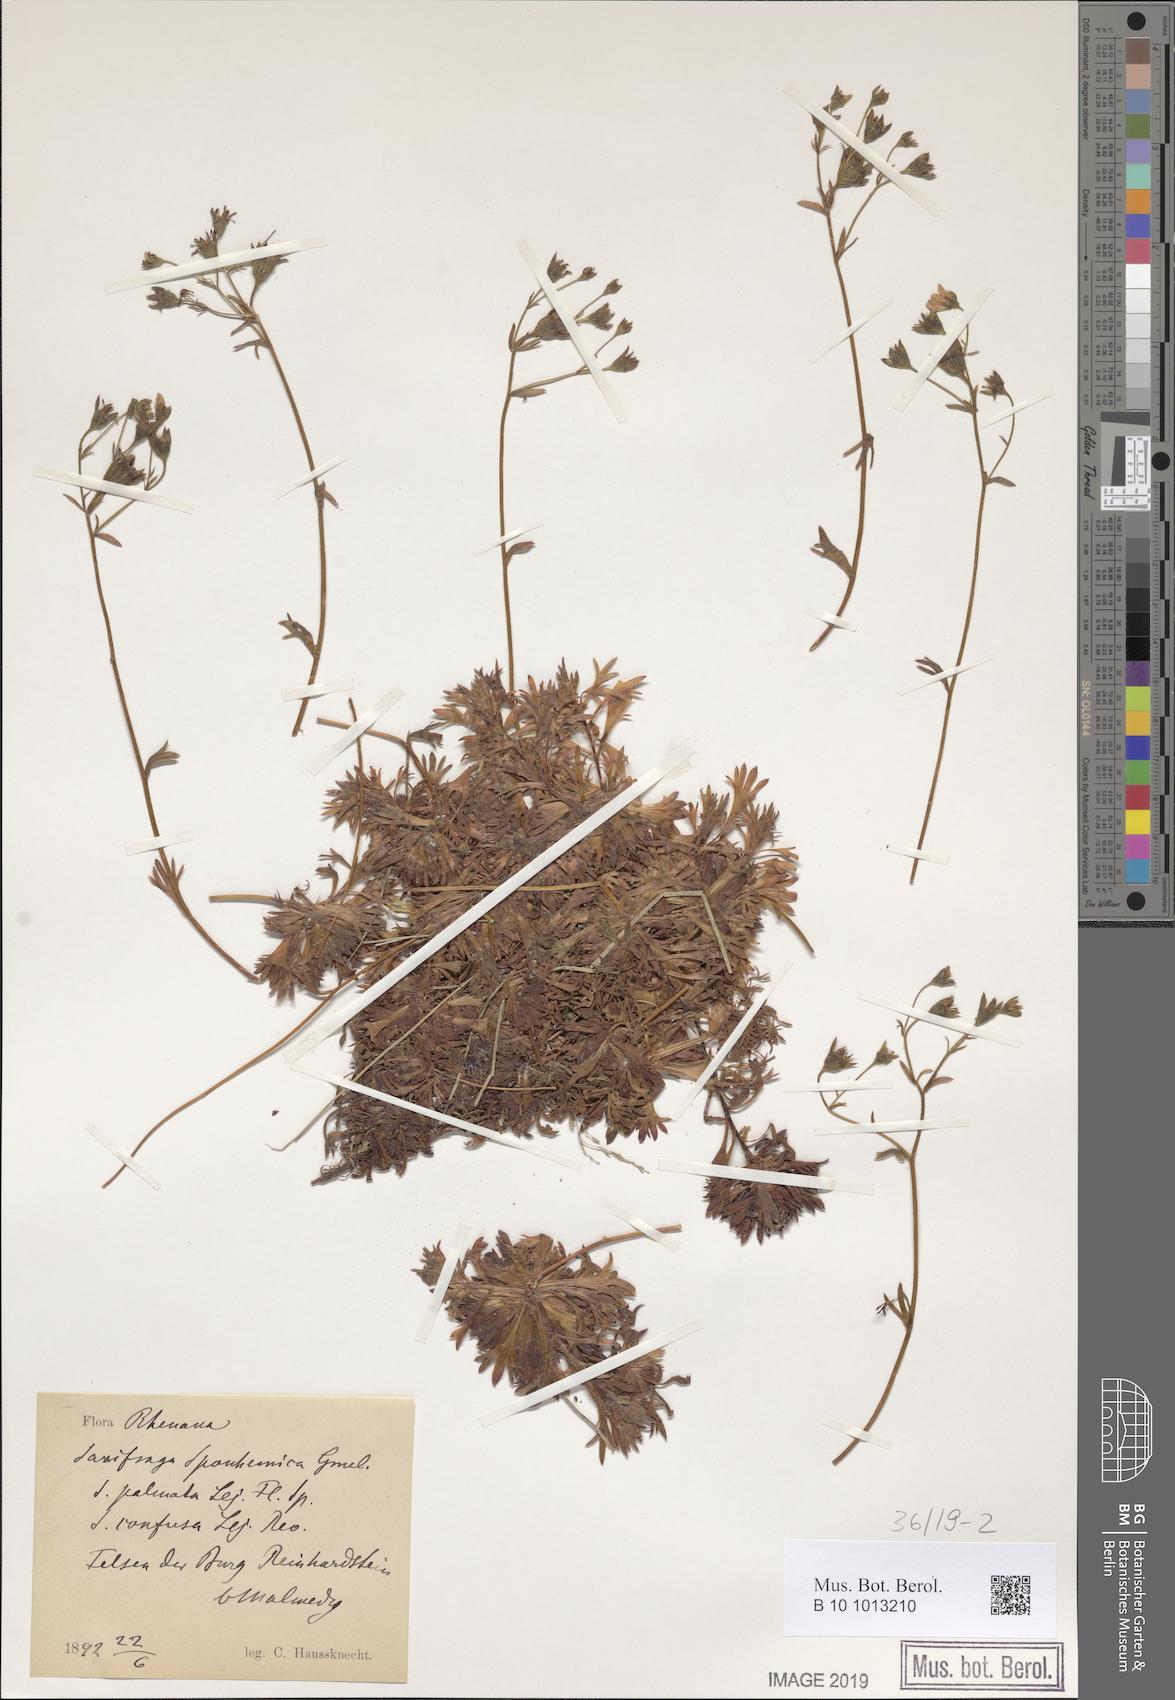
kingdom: Plantae
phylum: Tracheophyta
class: Magnoliopsida
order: Saxifragales
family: Saxifragaceae
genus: Saxifraga
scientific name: Saxifraga rosacea
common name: Irish saxifrage
